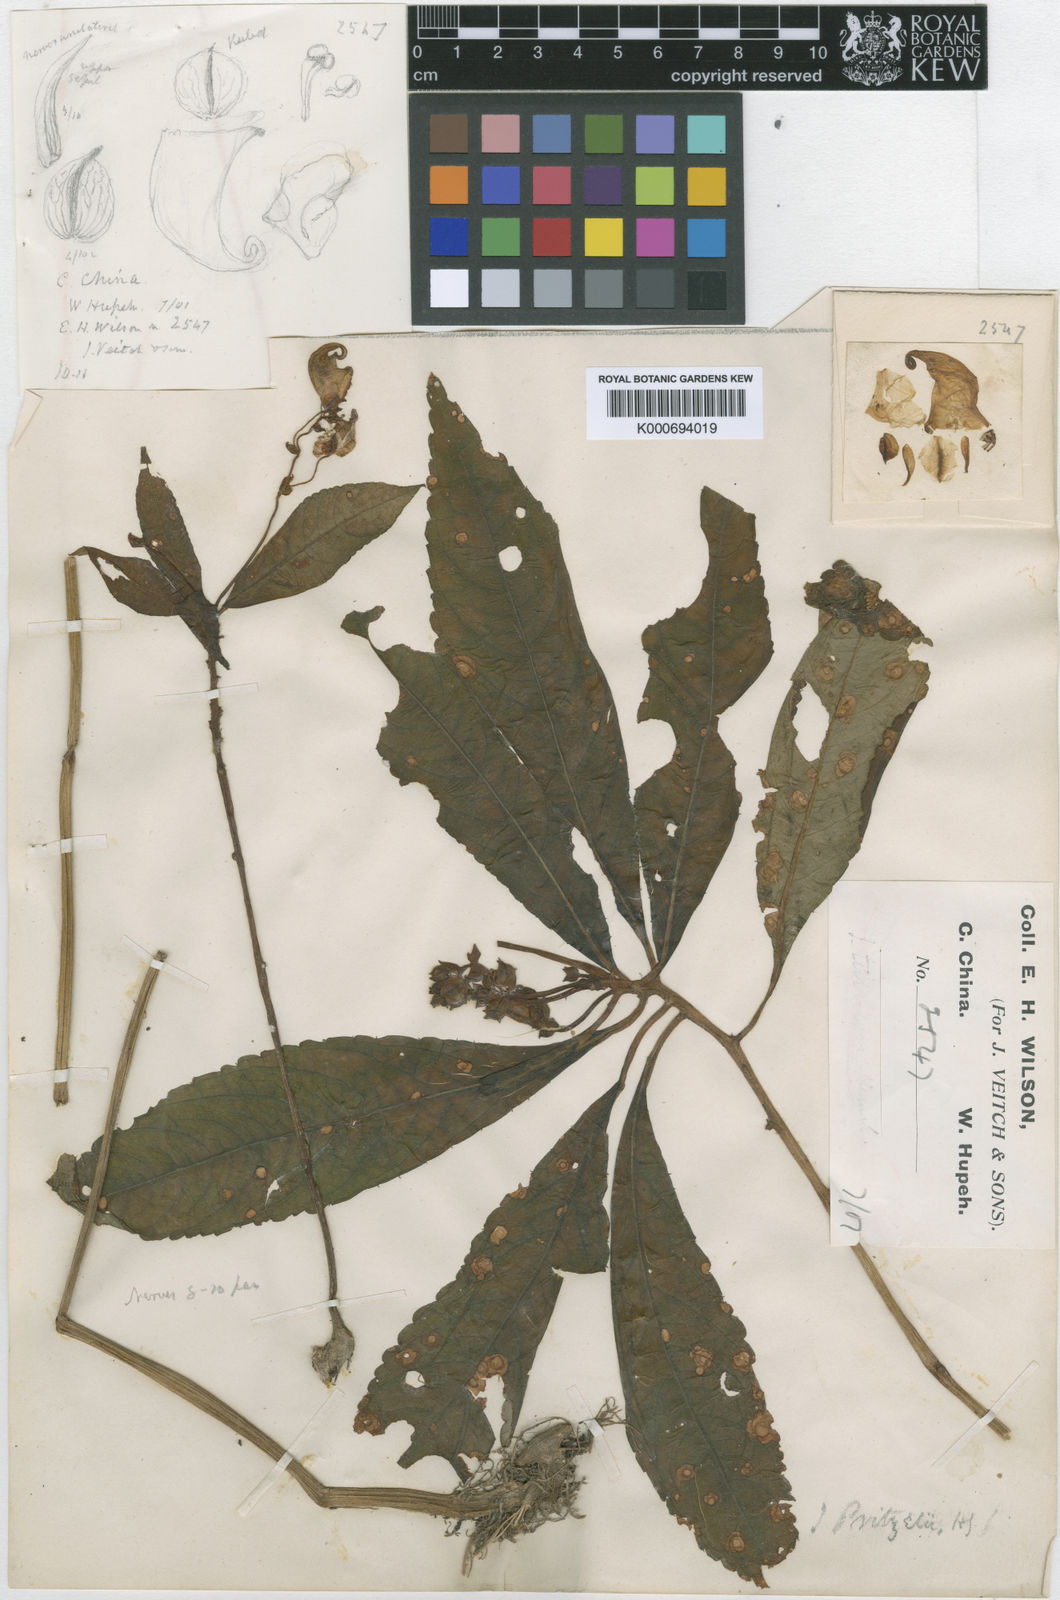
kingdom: Plantae
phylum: Tracheophyta
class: Magnoliopsida
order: Ericales
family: Balsaminaceae
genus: Impatiens
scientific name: Impatiens pritzelii
